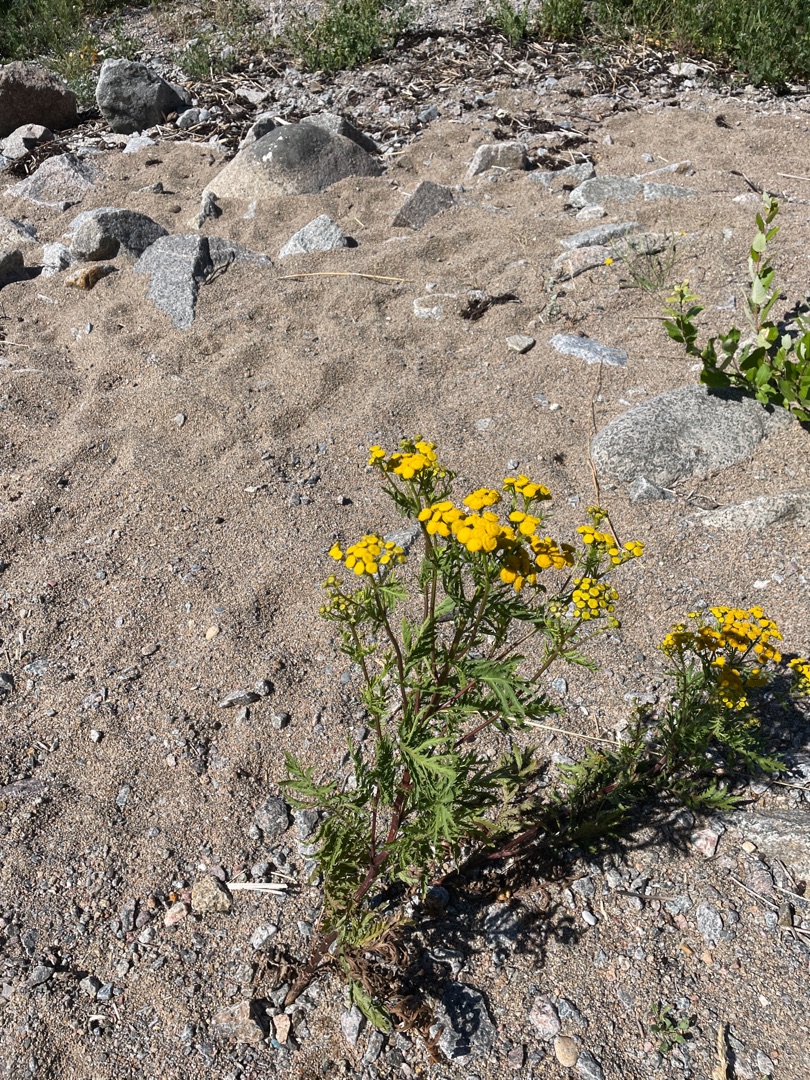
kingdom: Plantae
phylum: Tracheophyta
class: Magnoliopsida
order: Asterales
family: Asteraceae
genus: Tanacetum
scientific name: Tanacetum vulgare
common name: Rejnfan
